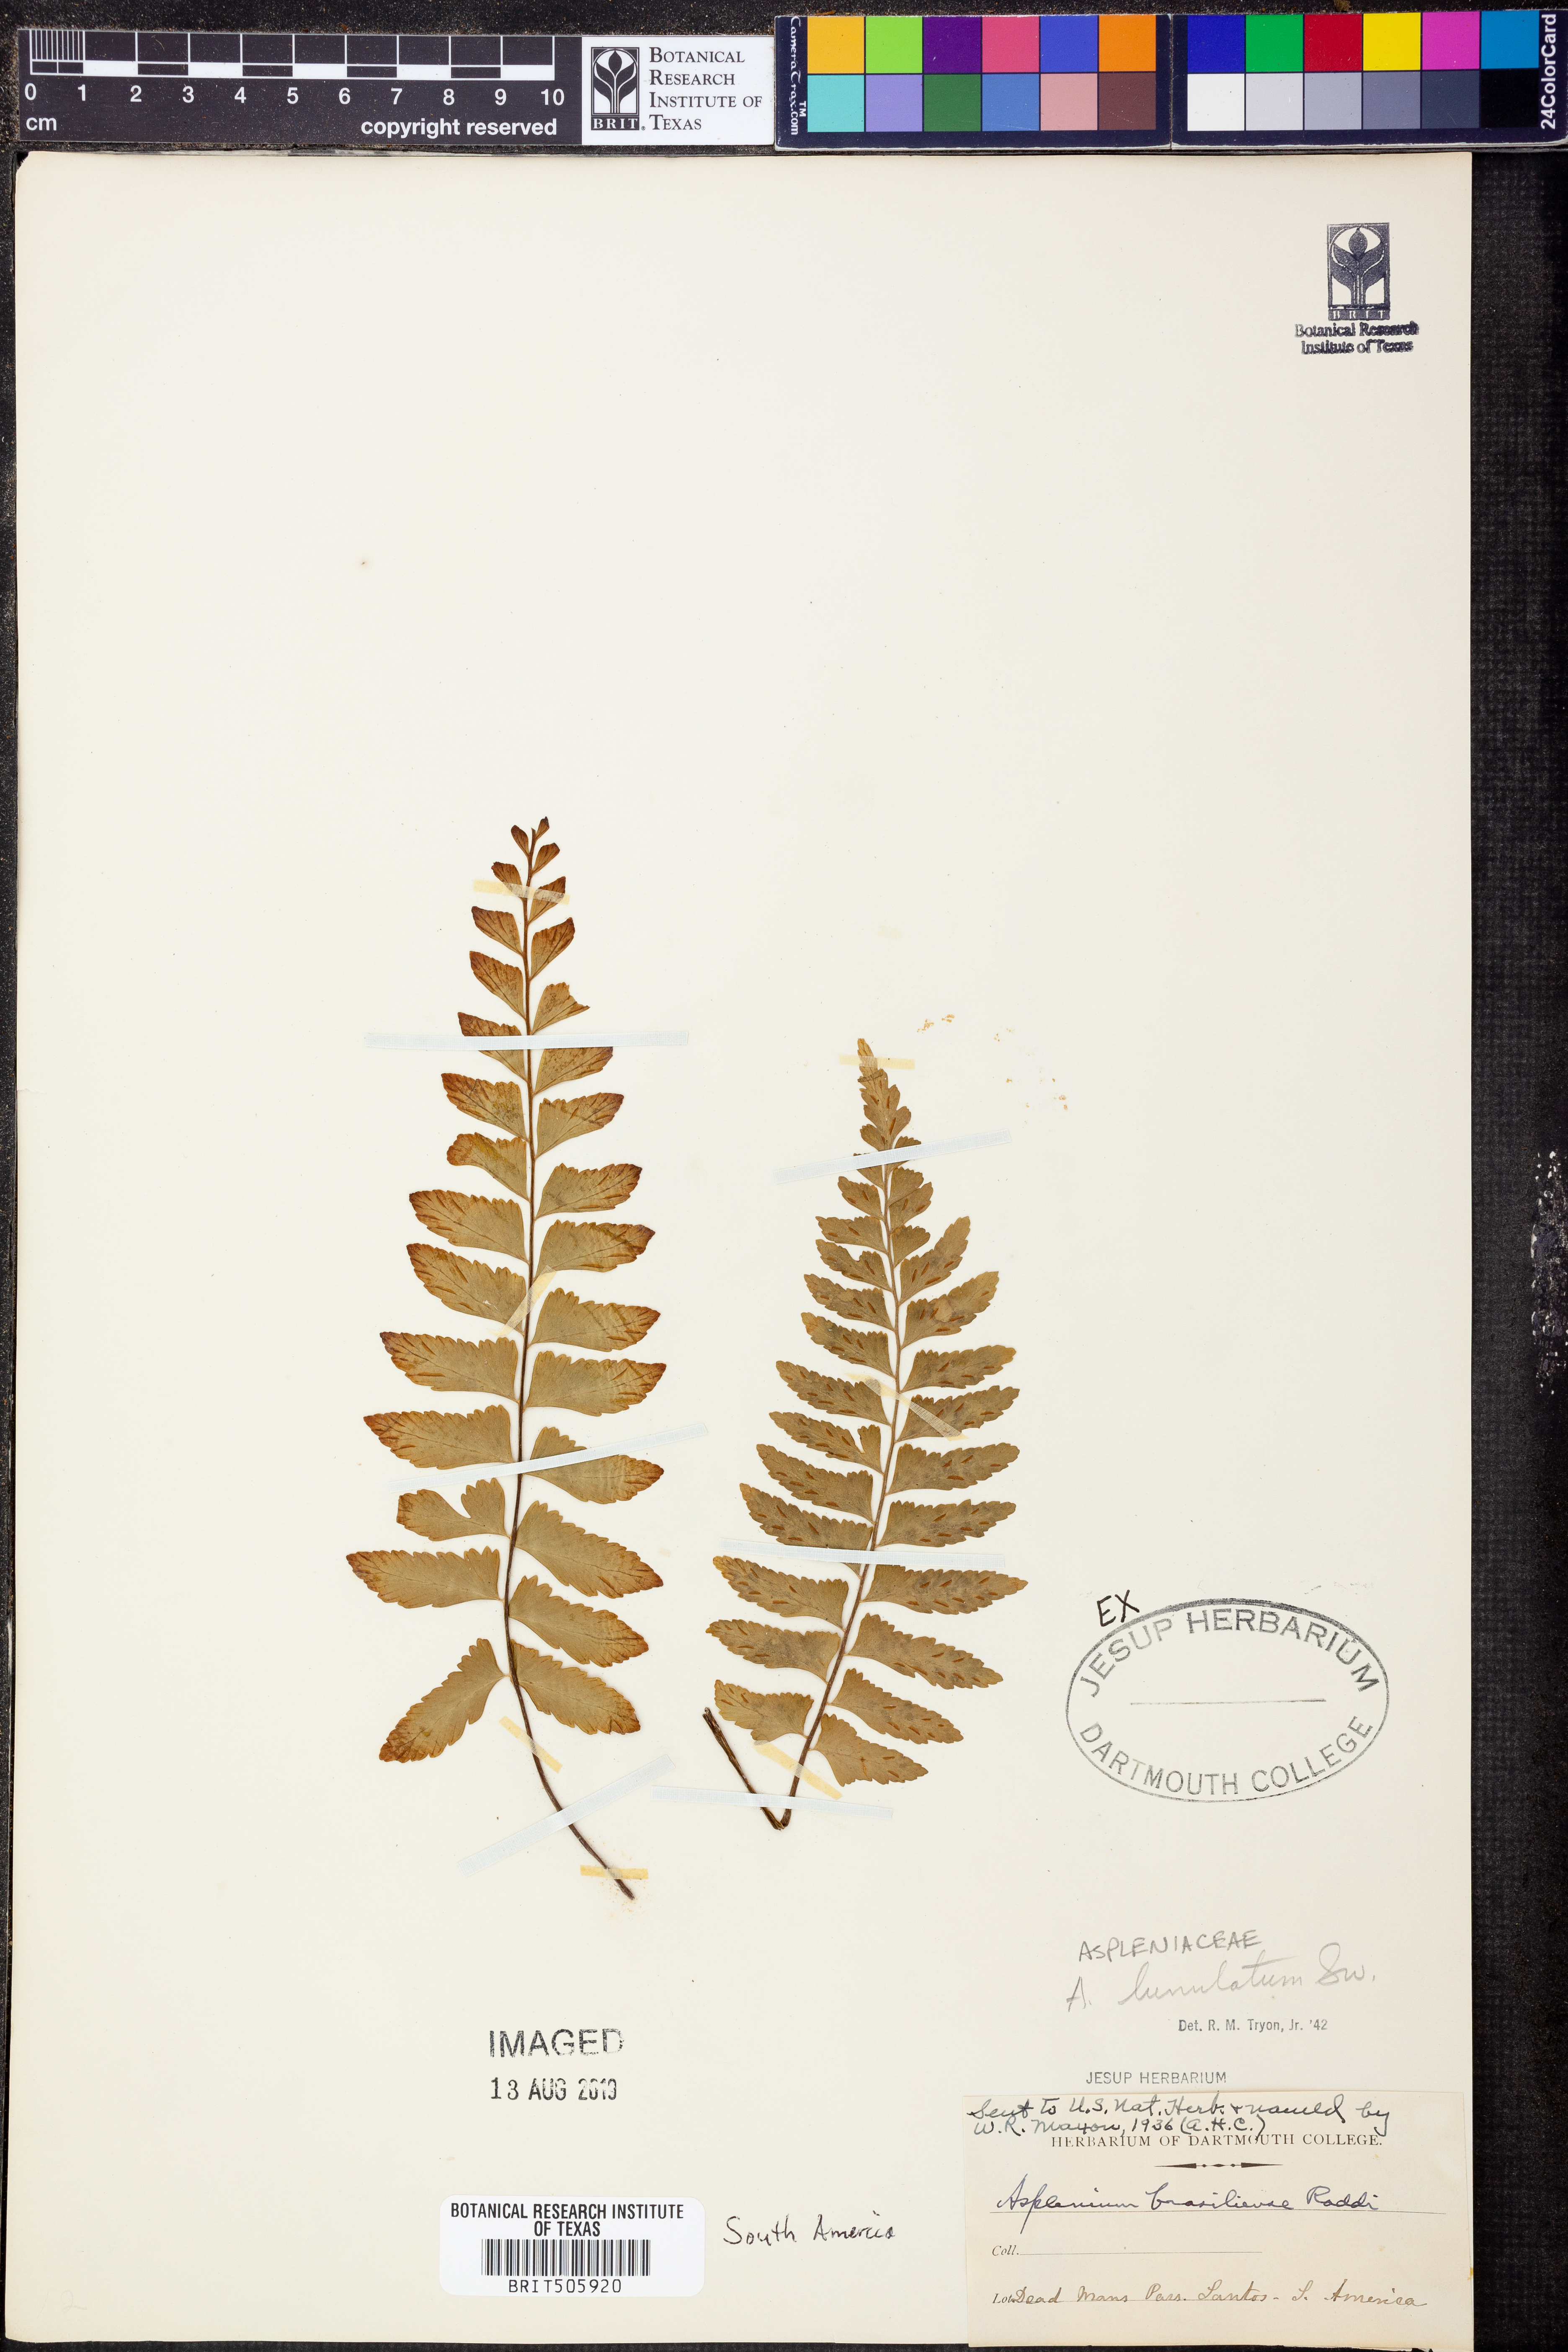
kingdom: Plantae
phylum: Tracheophyta
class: Polypodiopsida
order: Polypodiales
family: Aspleniaceae
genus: Asplenium
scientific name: Asplenium lunulatum
